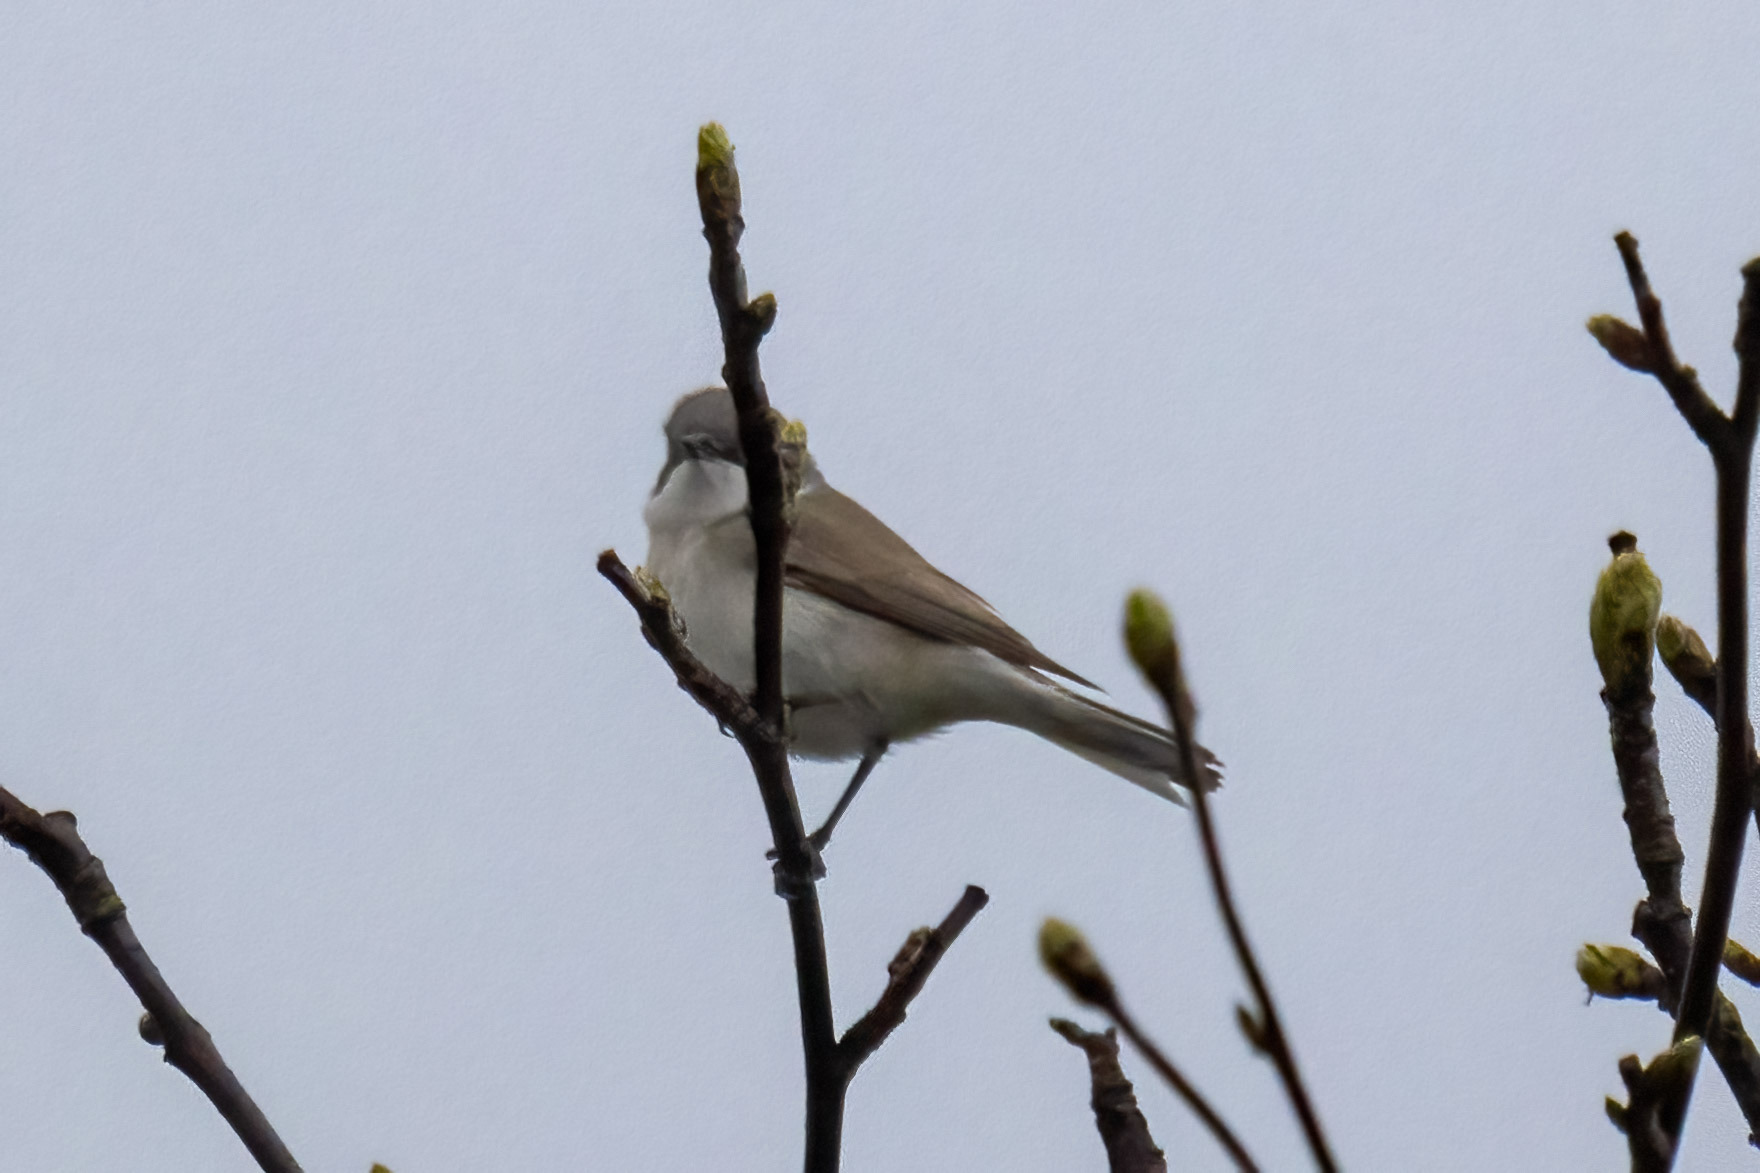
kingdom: Animalia
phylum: Chordata
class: Aves
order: Passeriformes
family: Sylviidae
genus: Sylvia
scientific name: Sylvia curruca
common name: Gærdesanger
